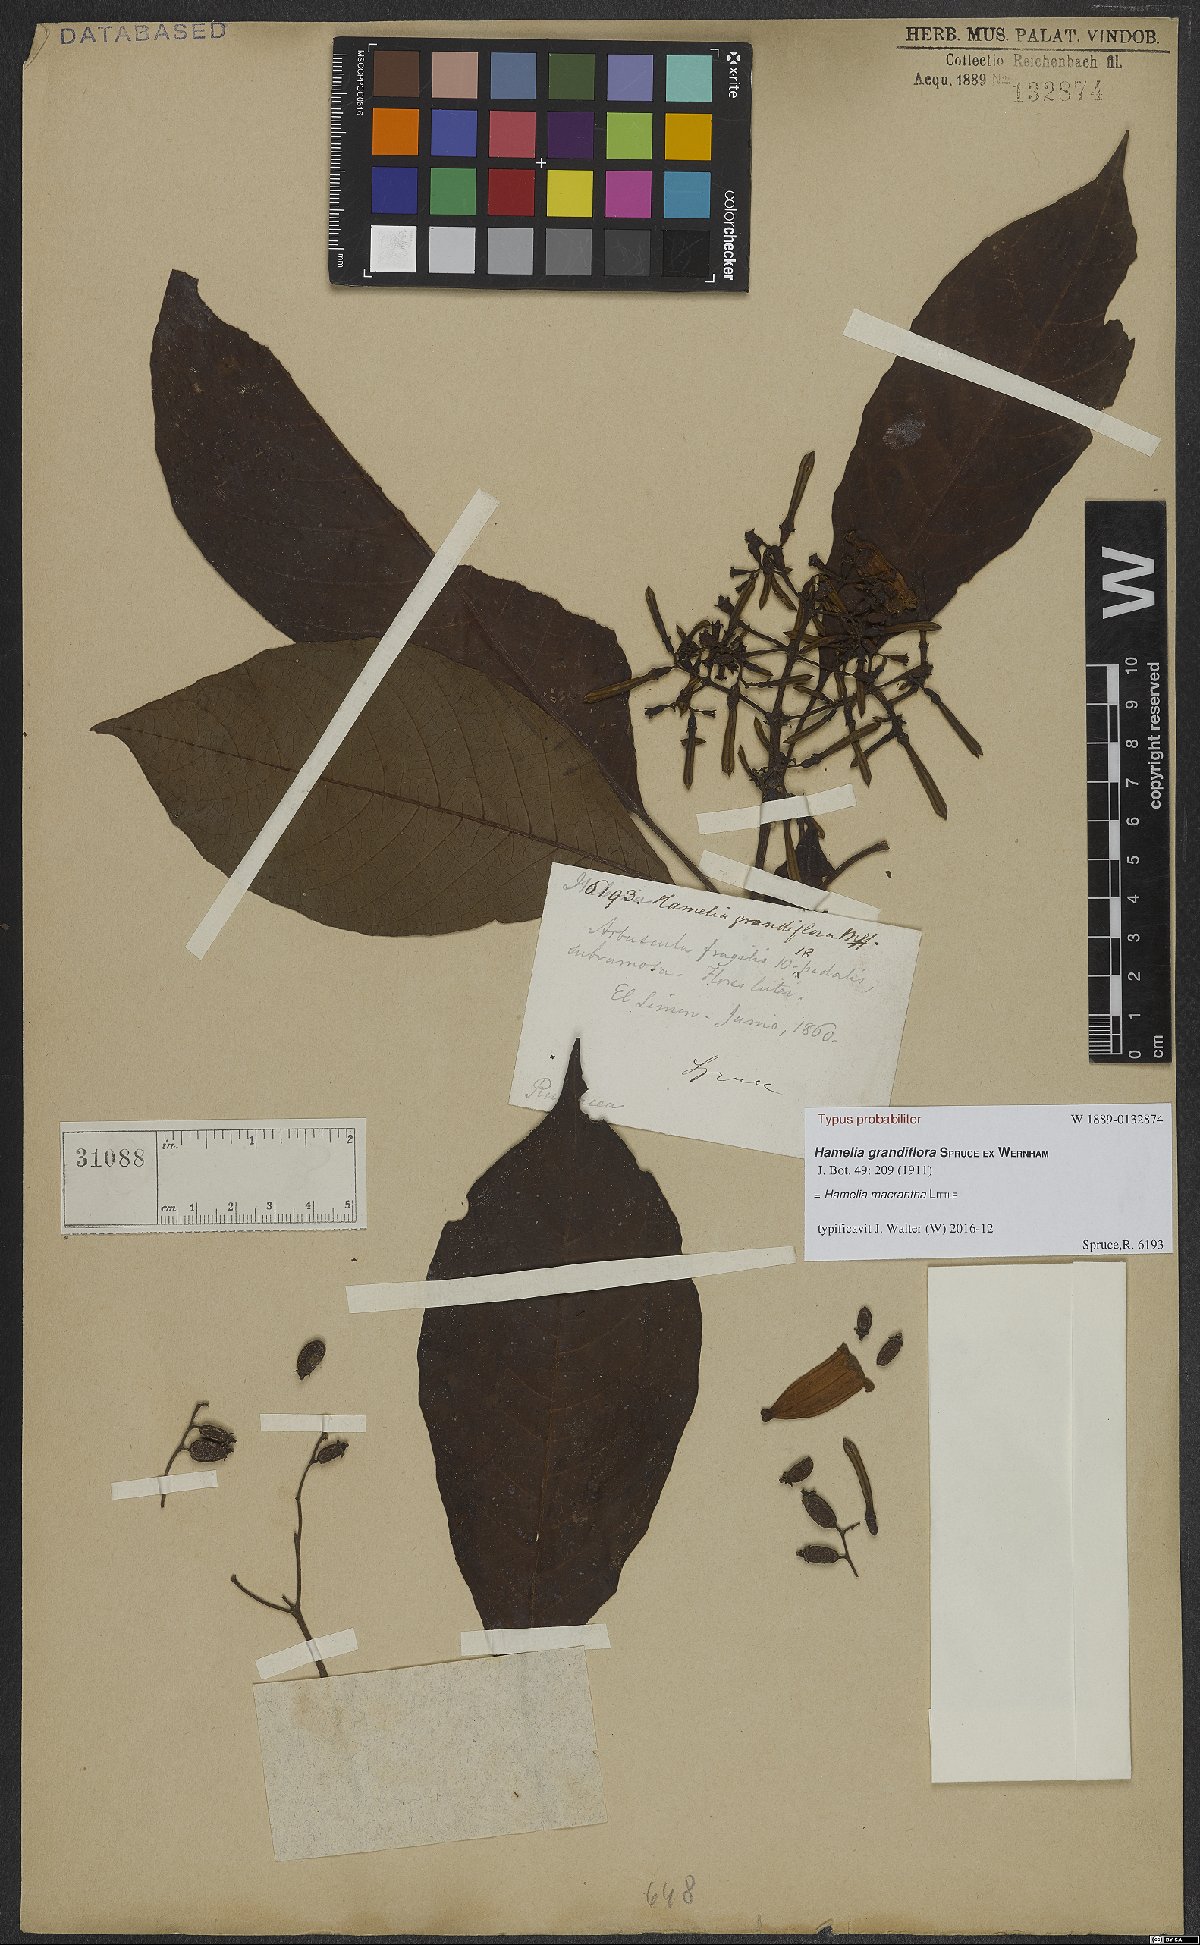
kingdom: Plantae
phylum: Tracheophyta
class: Magnoliopsida
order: Gentianales
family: Rubiaceae
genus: Hamelia
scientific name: Hamelia macrantha
